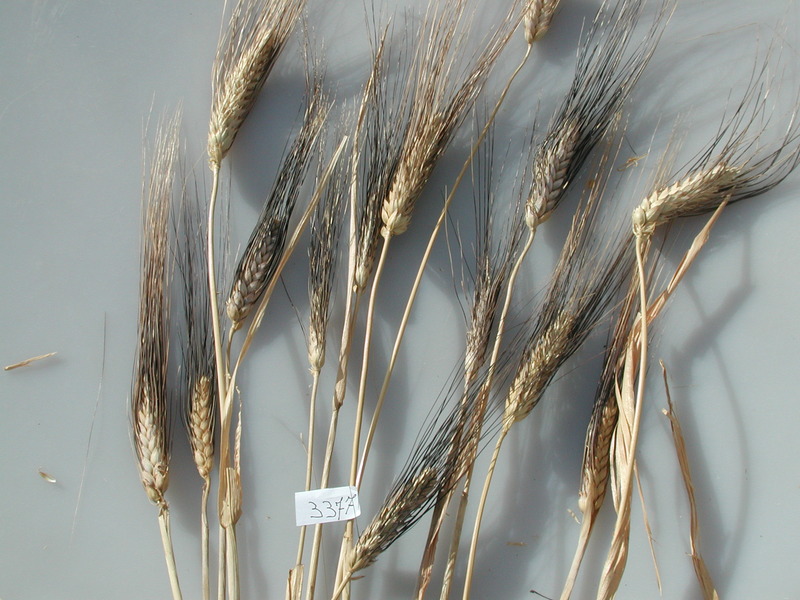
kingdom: Plantae
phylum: Tracheophyta
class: Liliopsida
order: Poales
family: Poaceae
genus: Triticum
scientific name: Triticum turgidum
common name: Wheat
